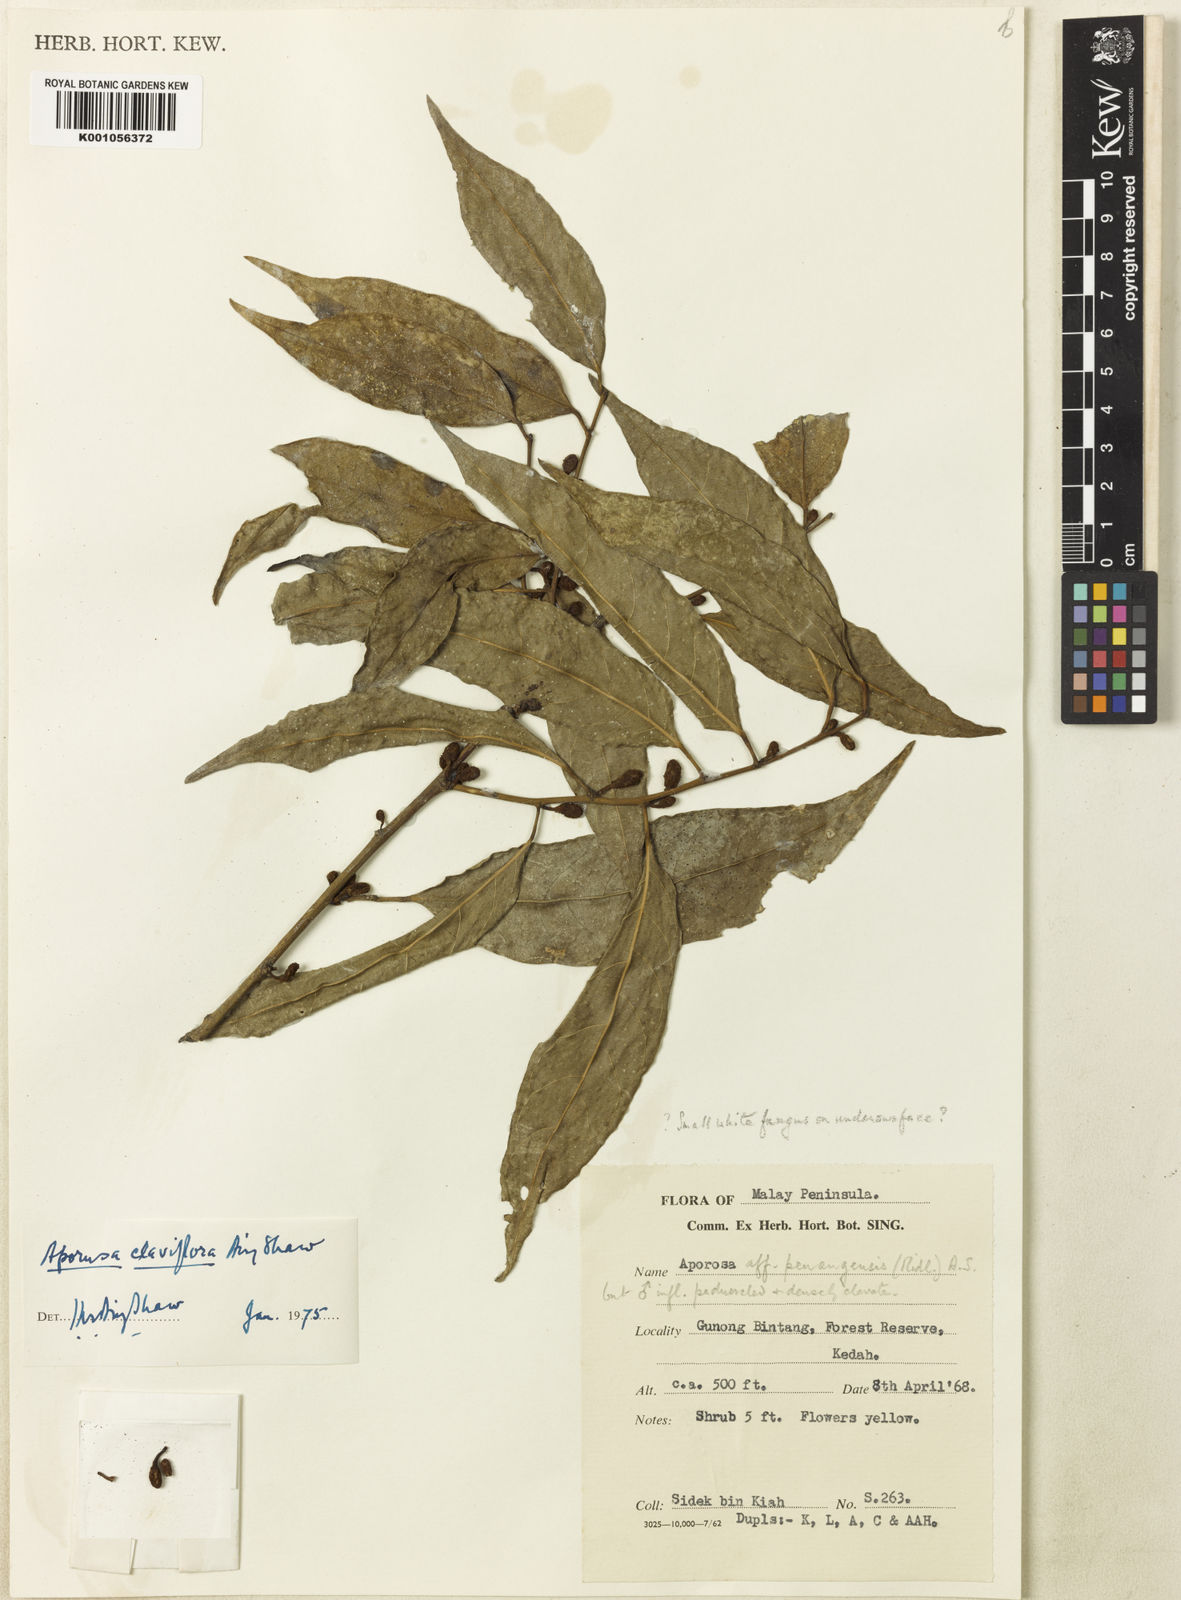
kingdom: Plantae
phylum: Tracheophyta
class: Magnoliopsida
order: Malpighiales
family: Phyllanthaceae
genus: Aporosa
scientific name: Aporosa
